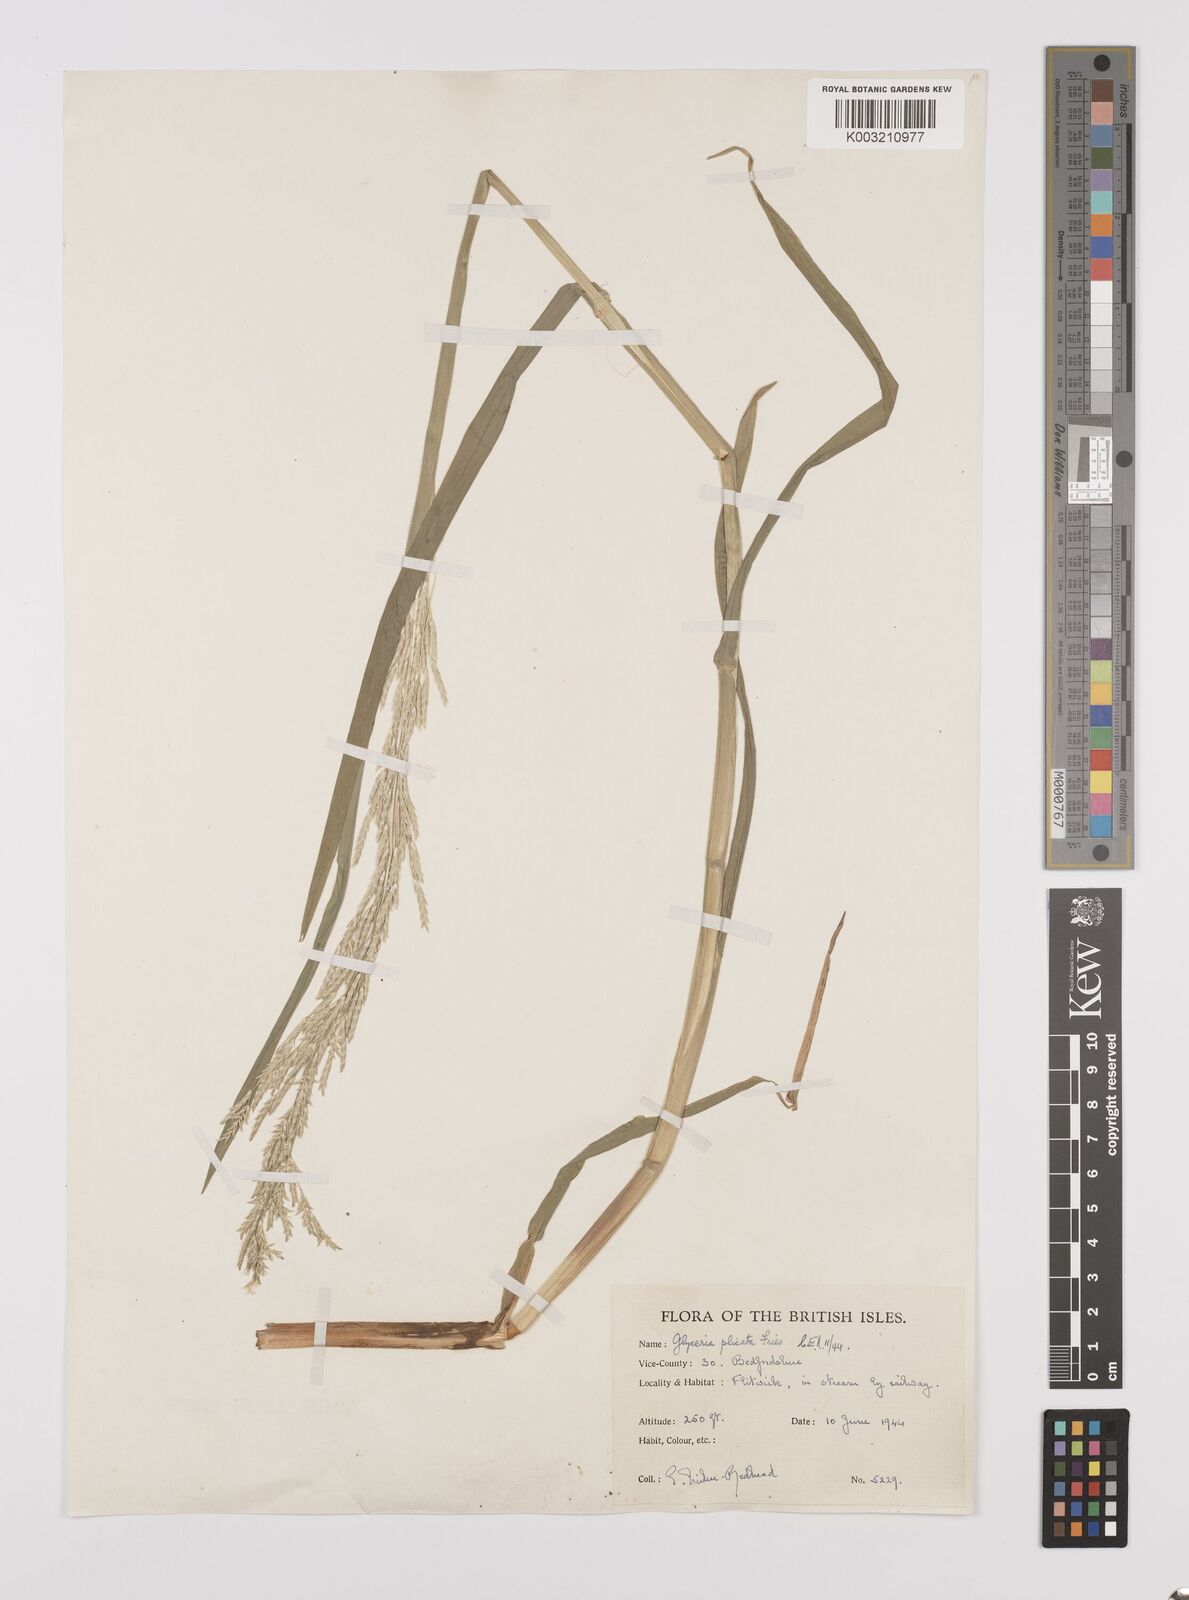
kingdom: Plantae
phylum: Tracheophyta
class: Liliopsida
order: Poales
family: Poaceae
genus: Glyceria
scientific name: Glyceria notata
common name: Plicate sweet-grass
